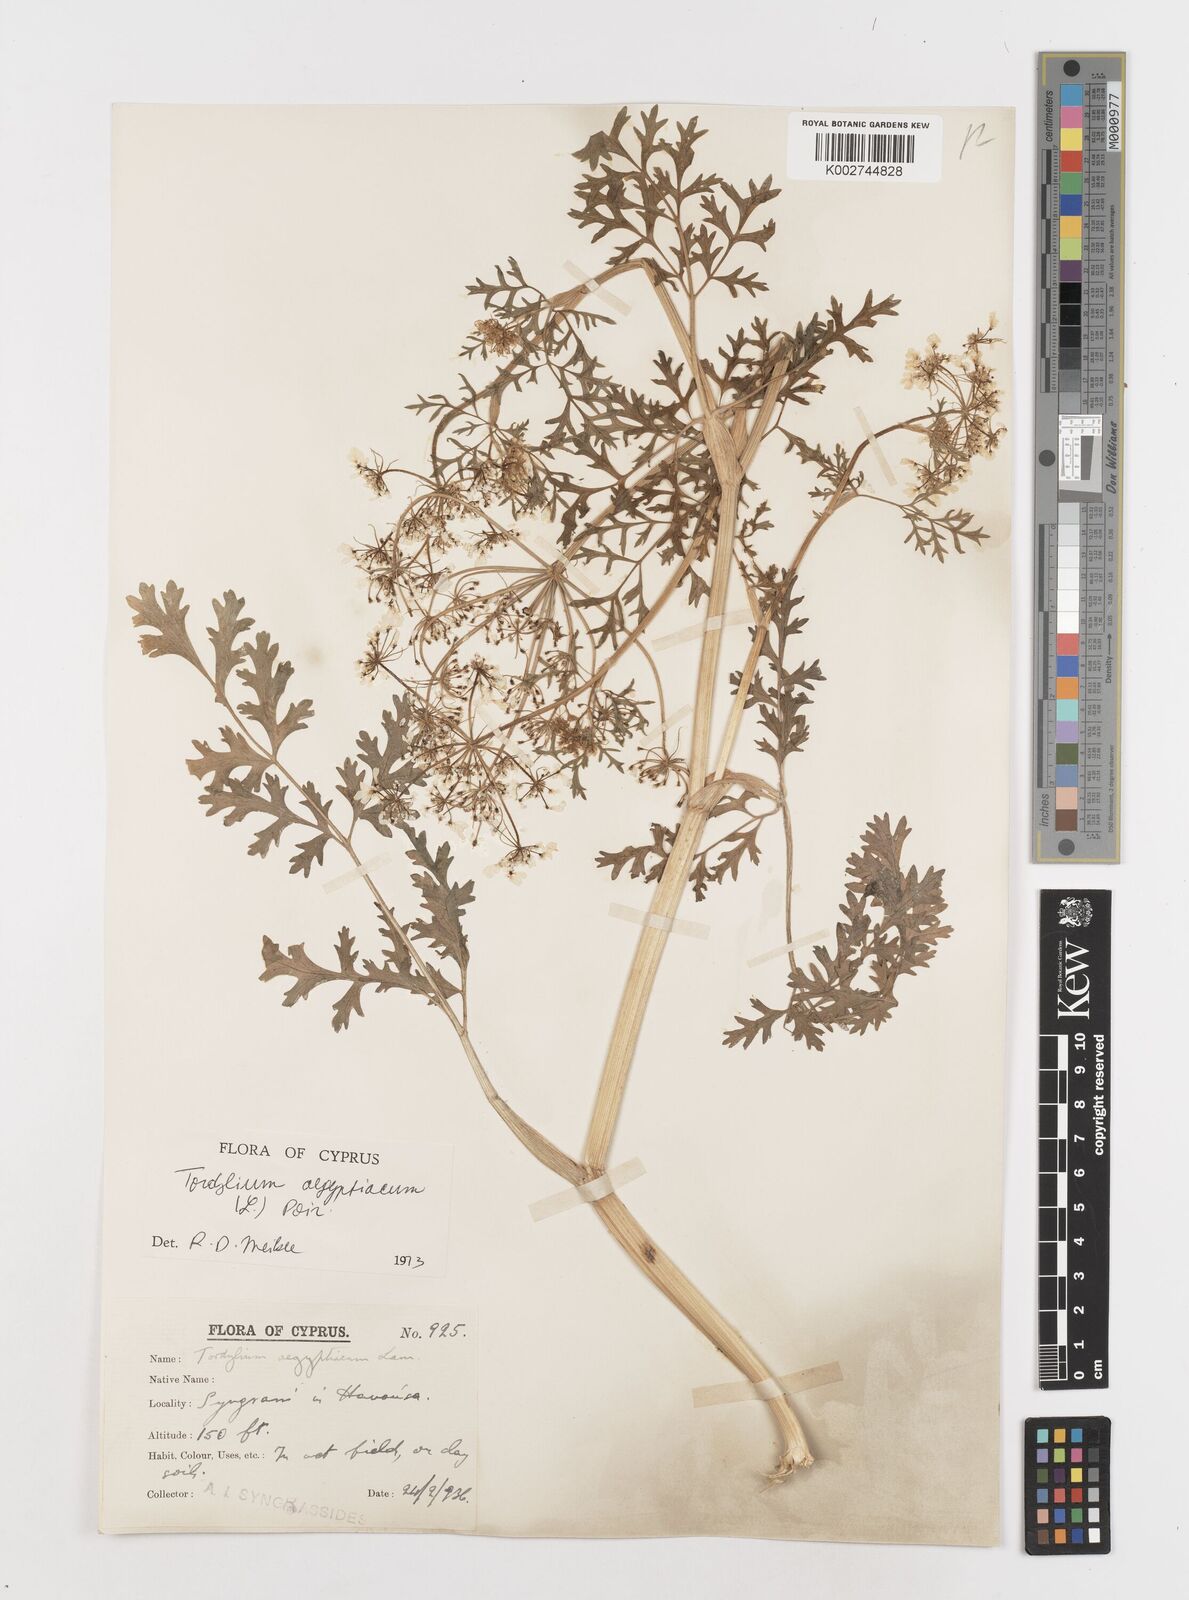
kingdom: Plantae
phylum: Tracheophyta
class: Magnoliopsida
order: Apiales
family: Apiaceae
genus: Tordylium
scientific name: Tordylium aegyptiacum
